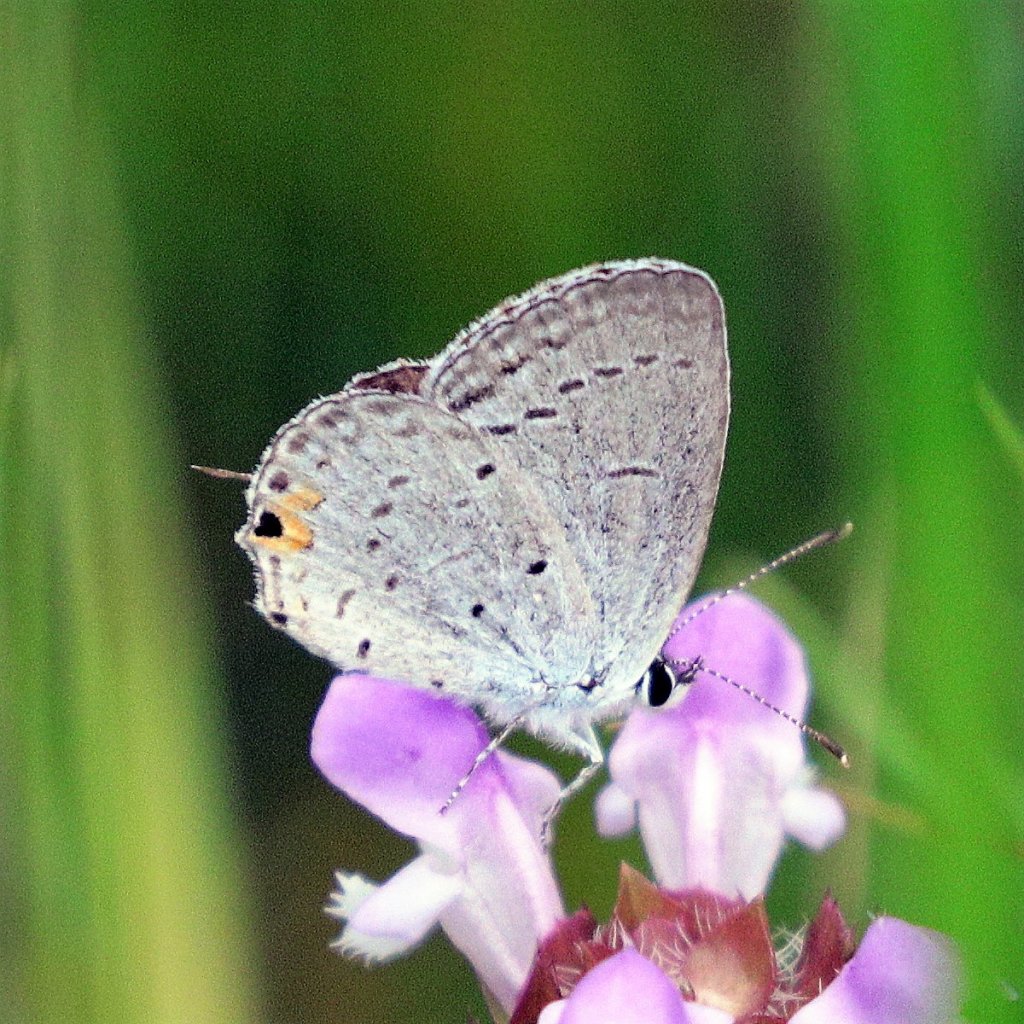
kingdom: Animalia
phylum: Arthropoda
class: Insecta
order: Lepidoptera
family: Lycaenidae
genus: Elkalyce
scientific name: Elkalyce comyntas
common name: Eastern Tailed-Blue
